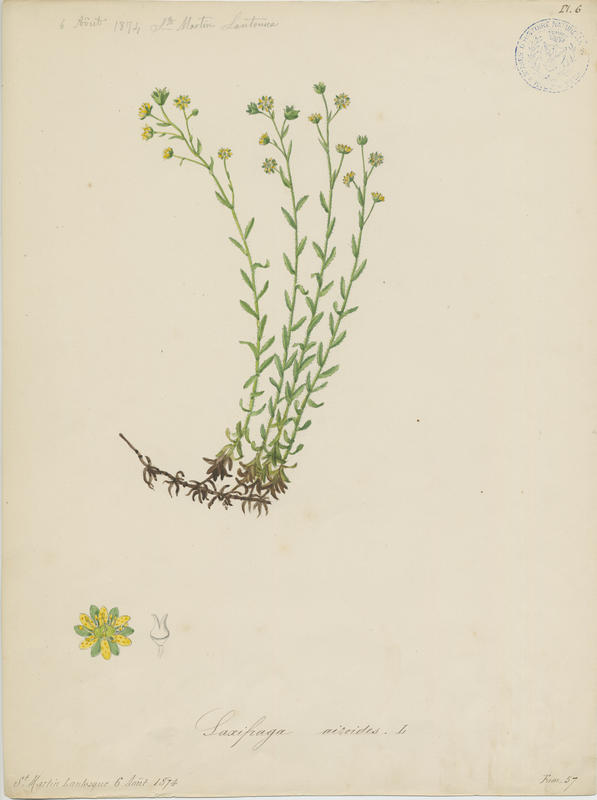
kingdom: Plantae
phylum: Tracheophyta
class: Magnoliopsida
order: Saxifragales
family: Saxifragaceae
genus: Saxifraga
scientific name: Saxifraga aizoides
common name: Yellow mountain saxifrage
